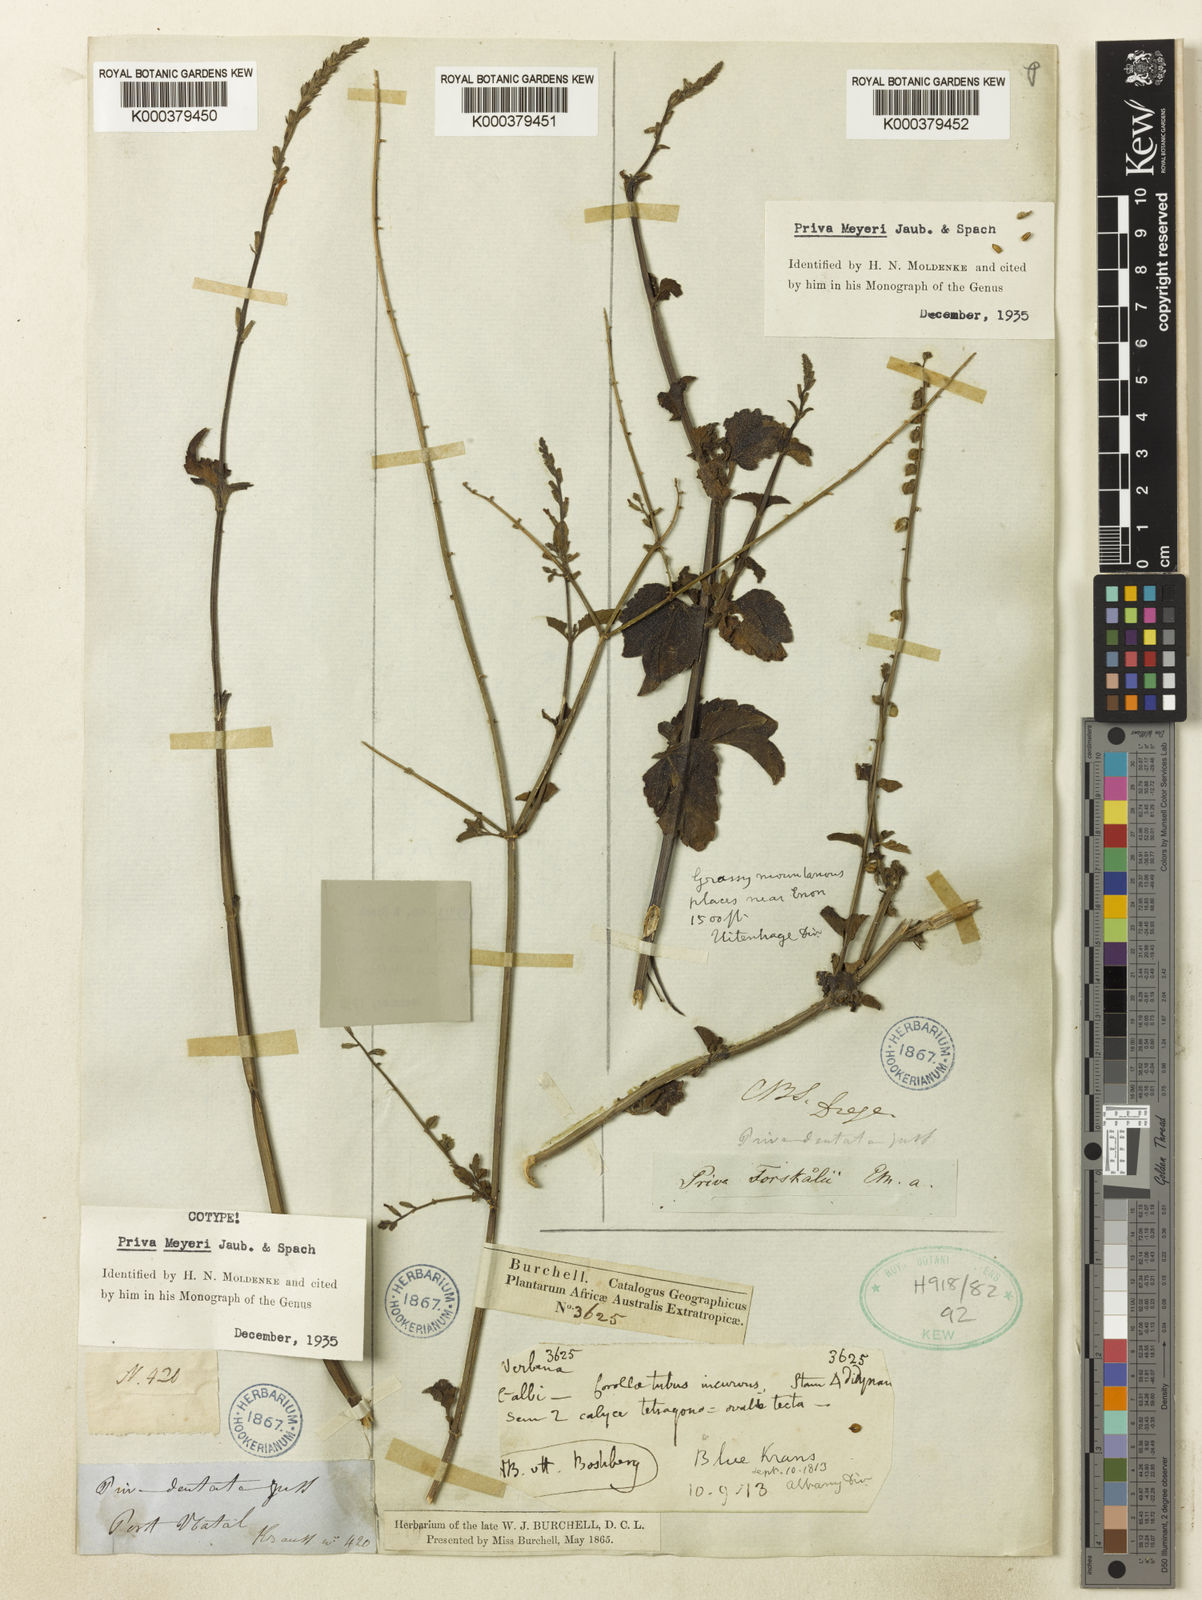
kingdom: Plantae
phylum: Tracheophyta
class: Magnoliopsida
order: Lamiales
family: Verbenaceae
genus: Priva
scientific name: Priva meyeri
